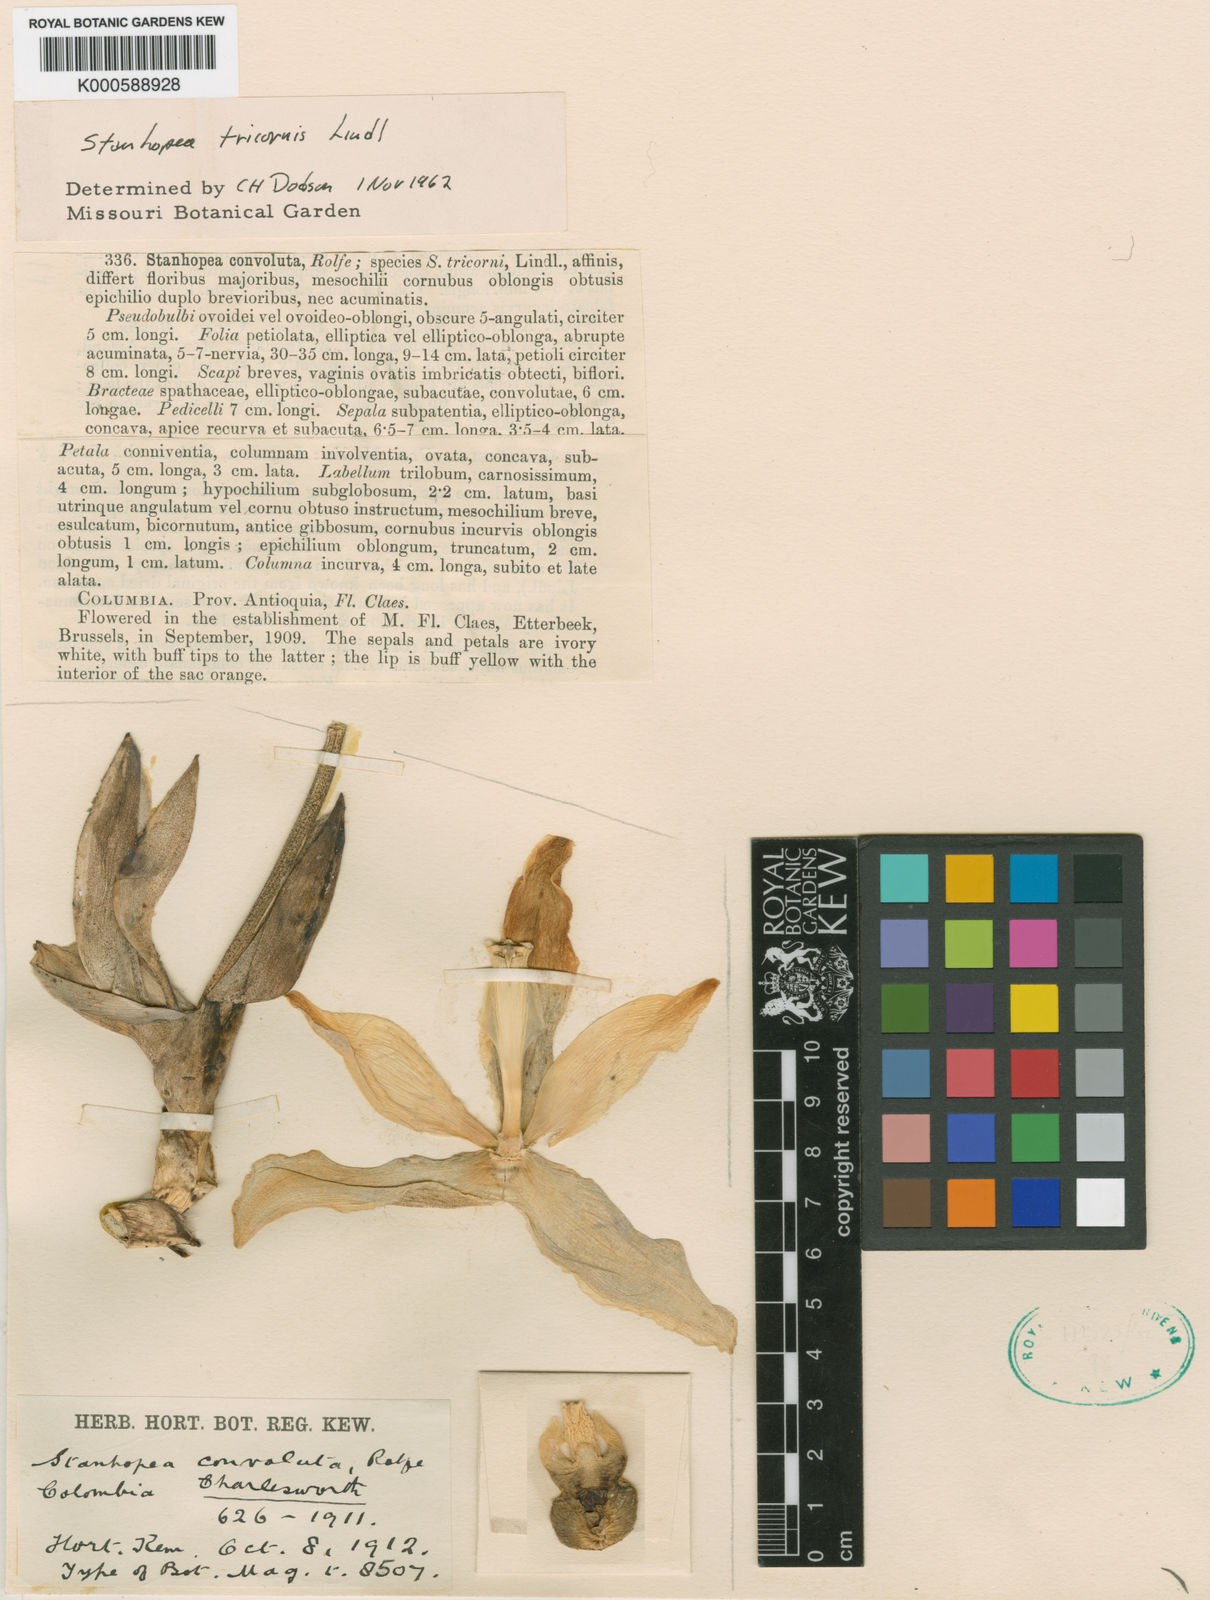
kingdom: Plantae
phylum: Tracheophyta
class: Liliopsida
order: Asparagales
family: Orchidaceae
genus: Stanhopea
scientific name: Stanhopea tricornis
